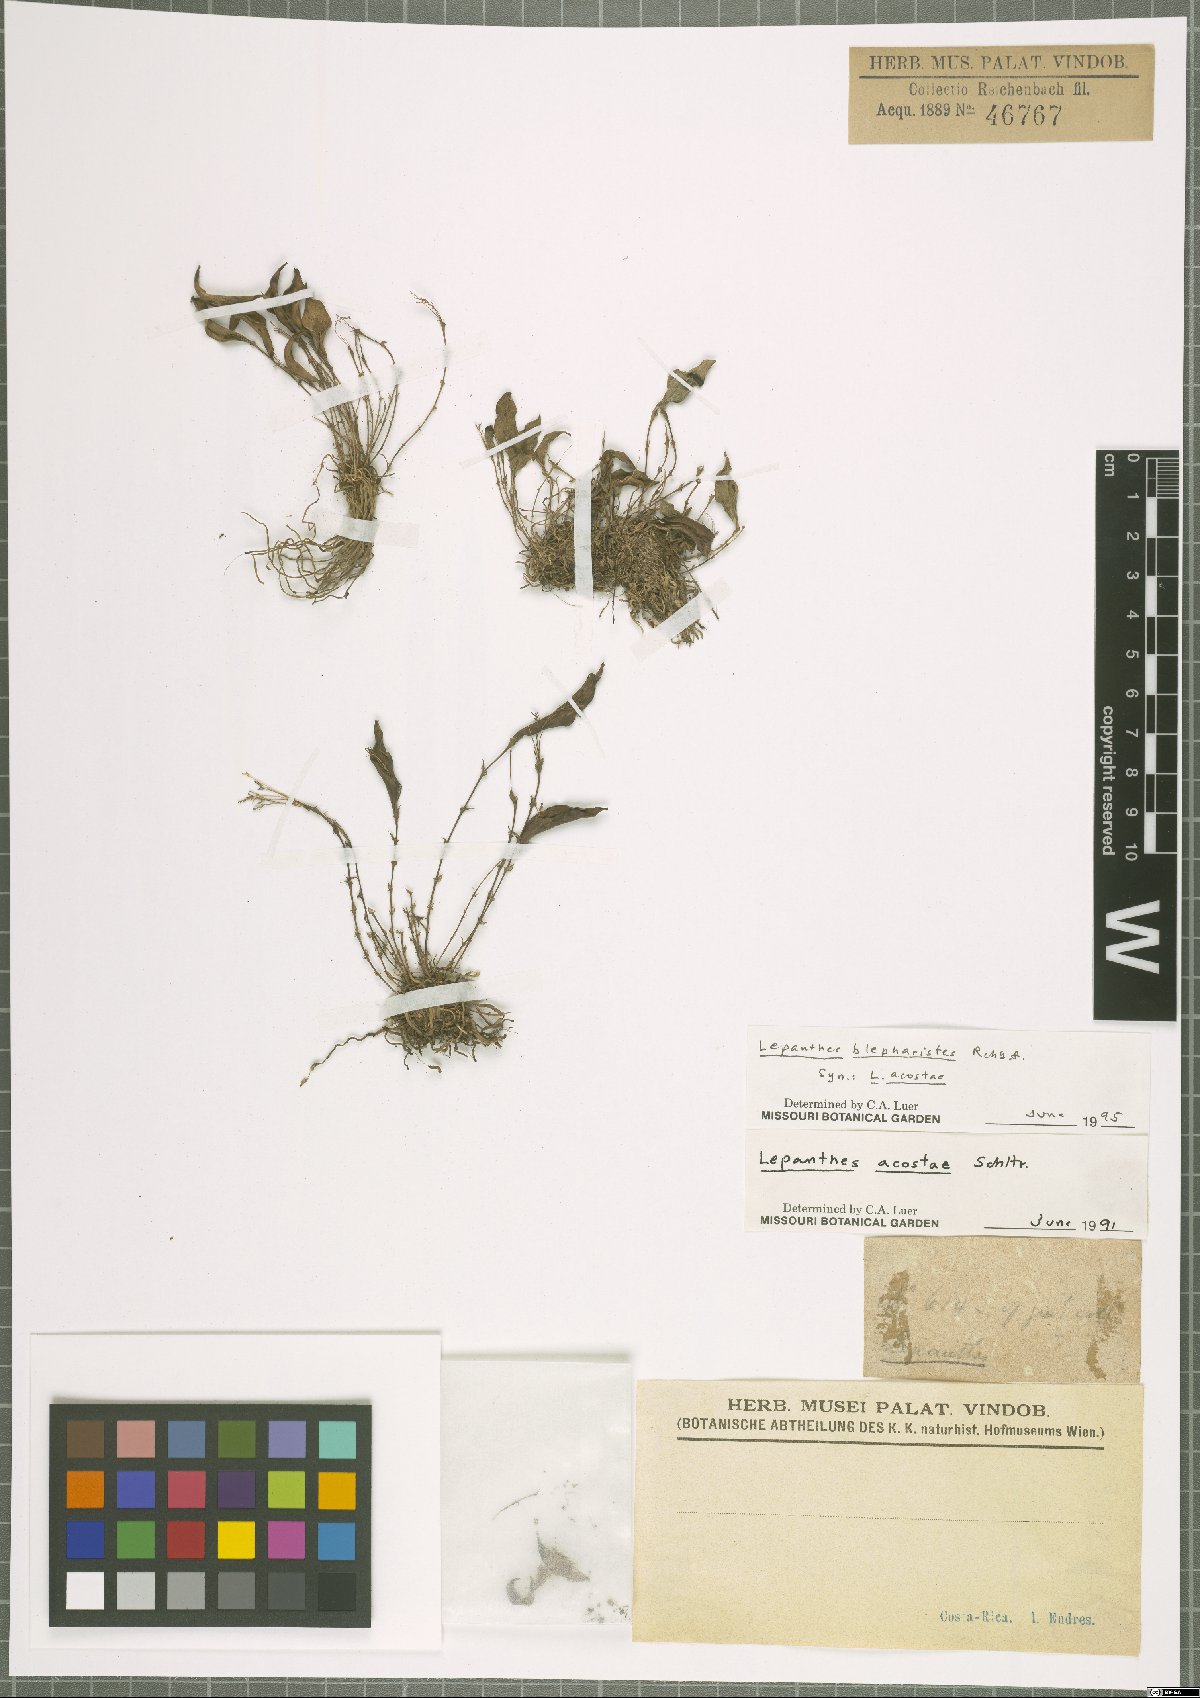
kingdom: Plantae
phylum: Tracheophyta
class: Liliopsida
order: Asparagales
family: Orchidaceae
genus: Lepanthes
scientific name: Lepanthes blepharistes
